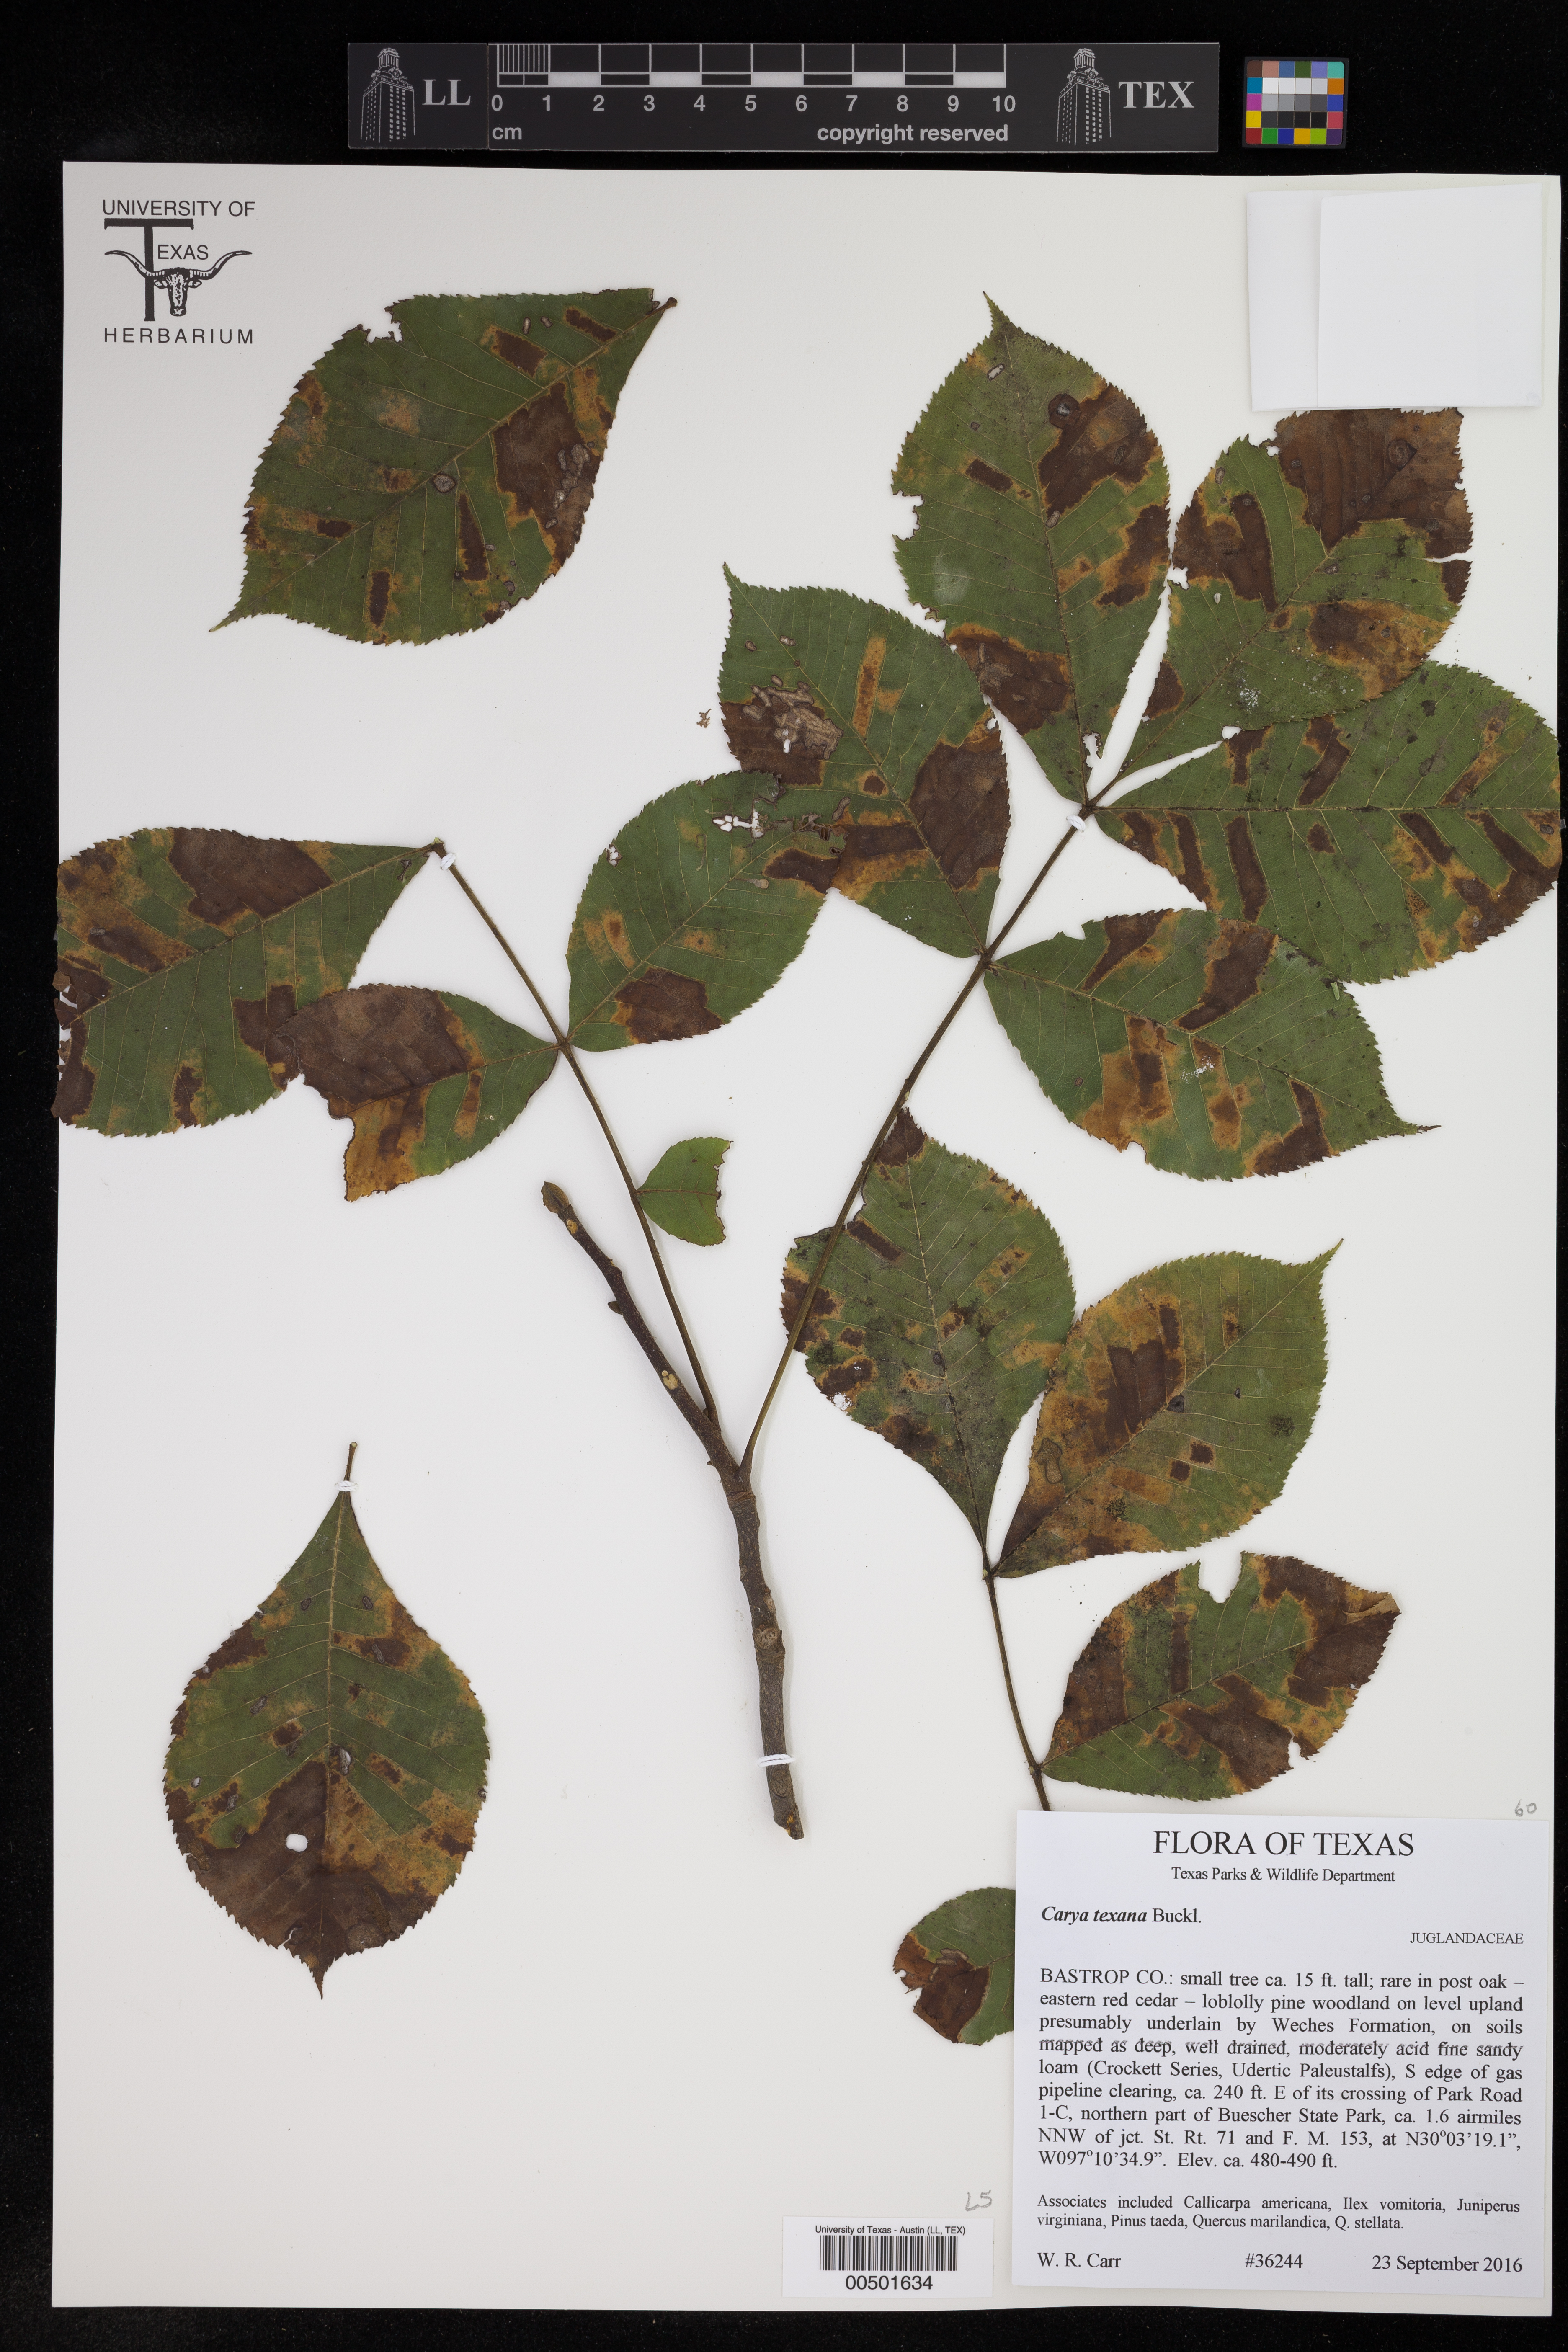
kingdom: Plantae
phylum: Tracheophyta
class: Magnoliopsida
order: Fagales
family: Juglandaceae
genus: Carya
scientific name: Carya texana
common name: Black hickory
